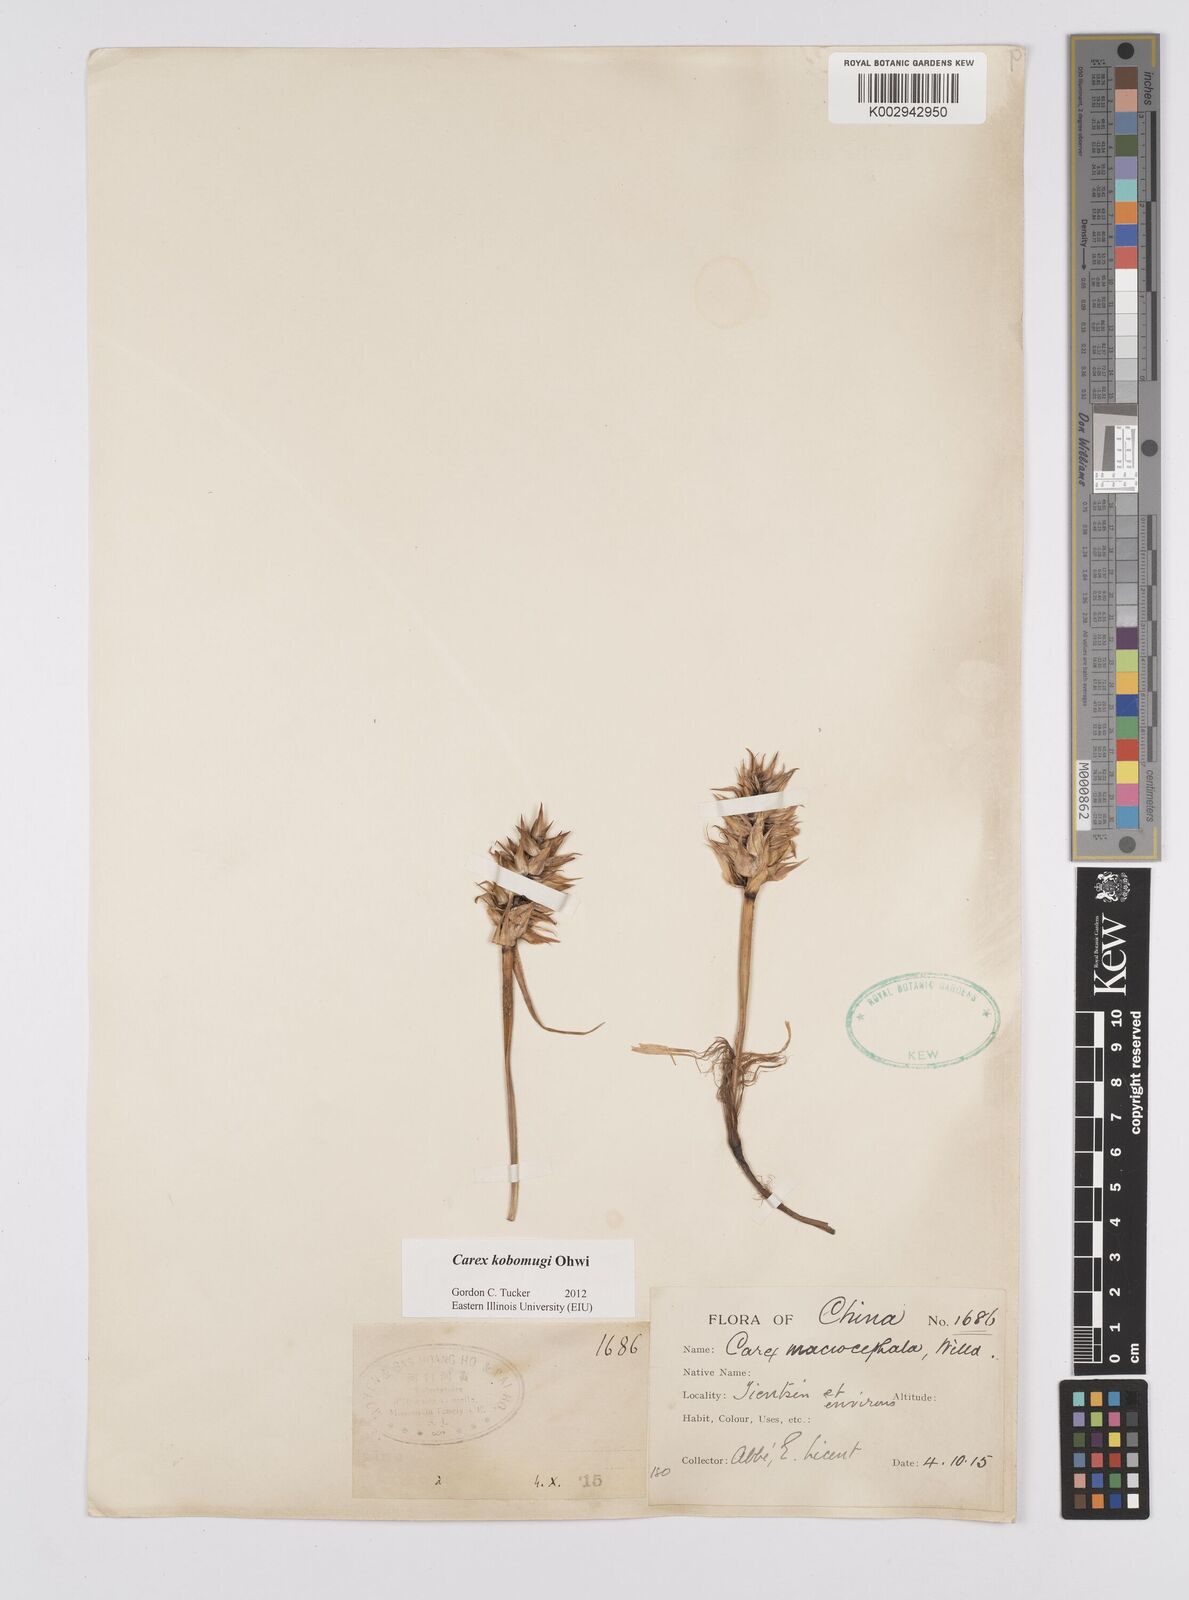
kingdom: Plantae
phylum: Tracheophyta
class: Liliopsida
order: Poales
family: Cyperaceae
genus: Carex
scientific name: Carex kobomugi
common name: Japanese sedge
